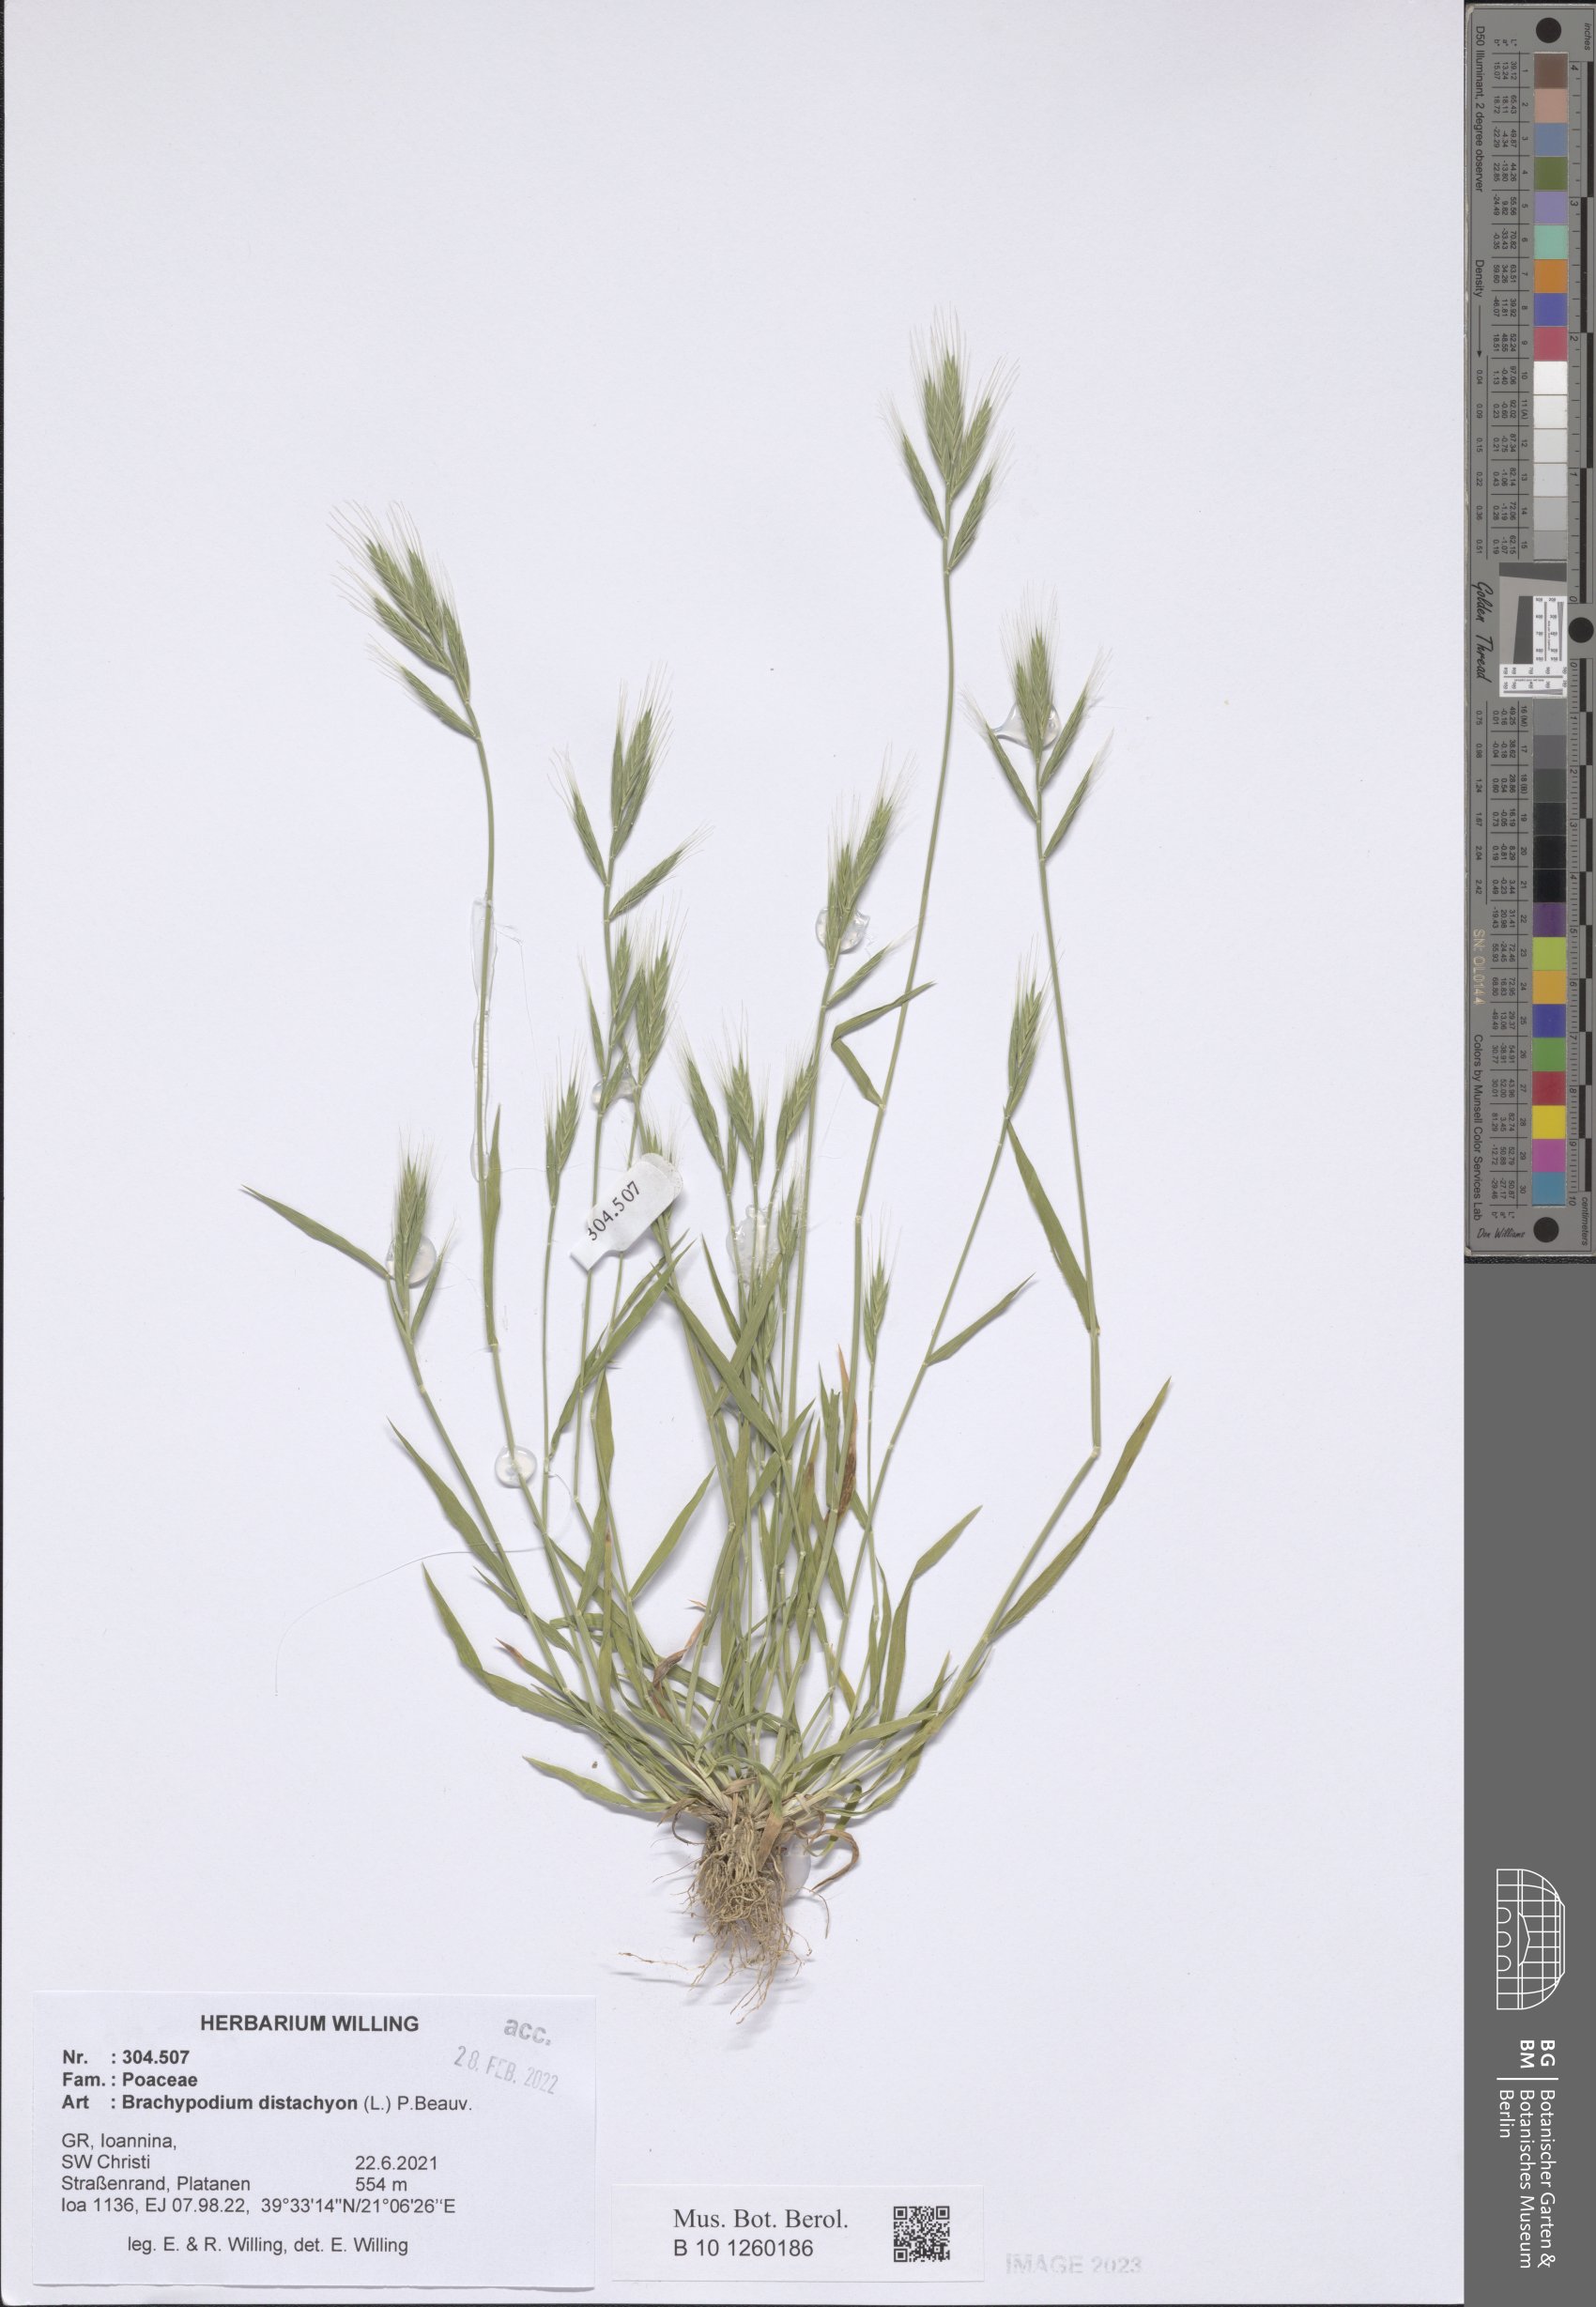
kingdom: Plantae
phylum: Tracheophyta
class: Liliopsida
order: Poales
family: Poaceae
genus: Brachypodium
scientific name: Brachypodium distachyon
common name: Stiff brome
